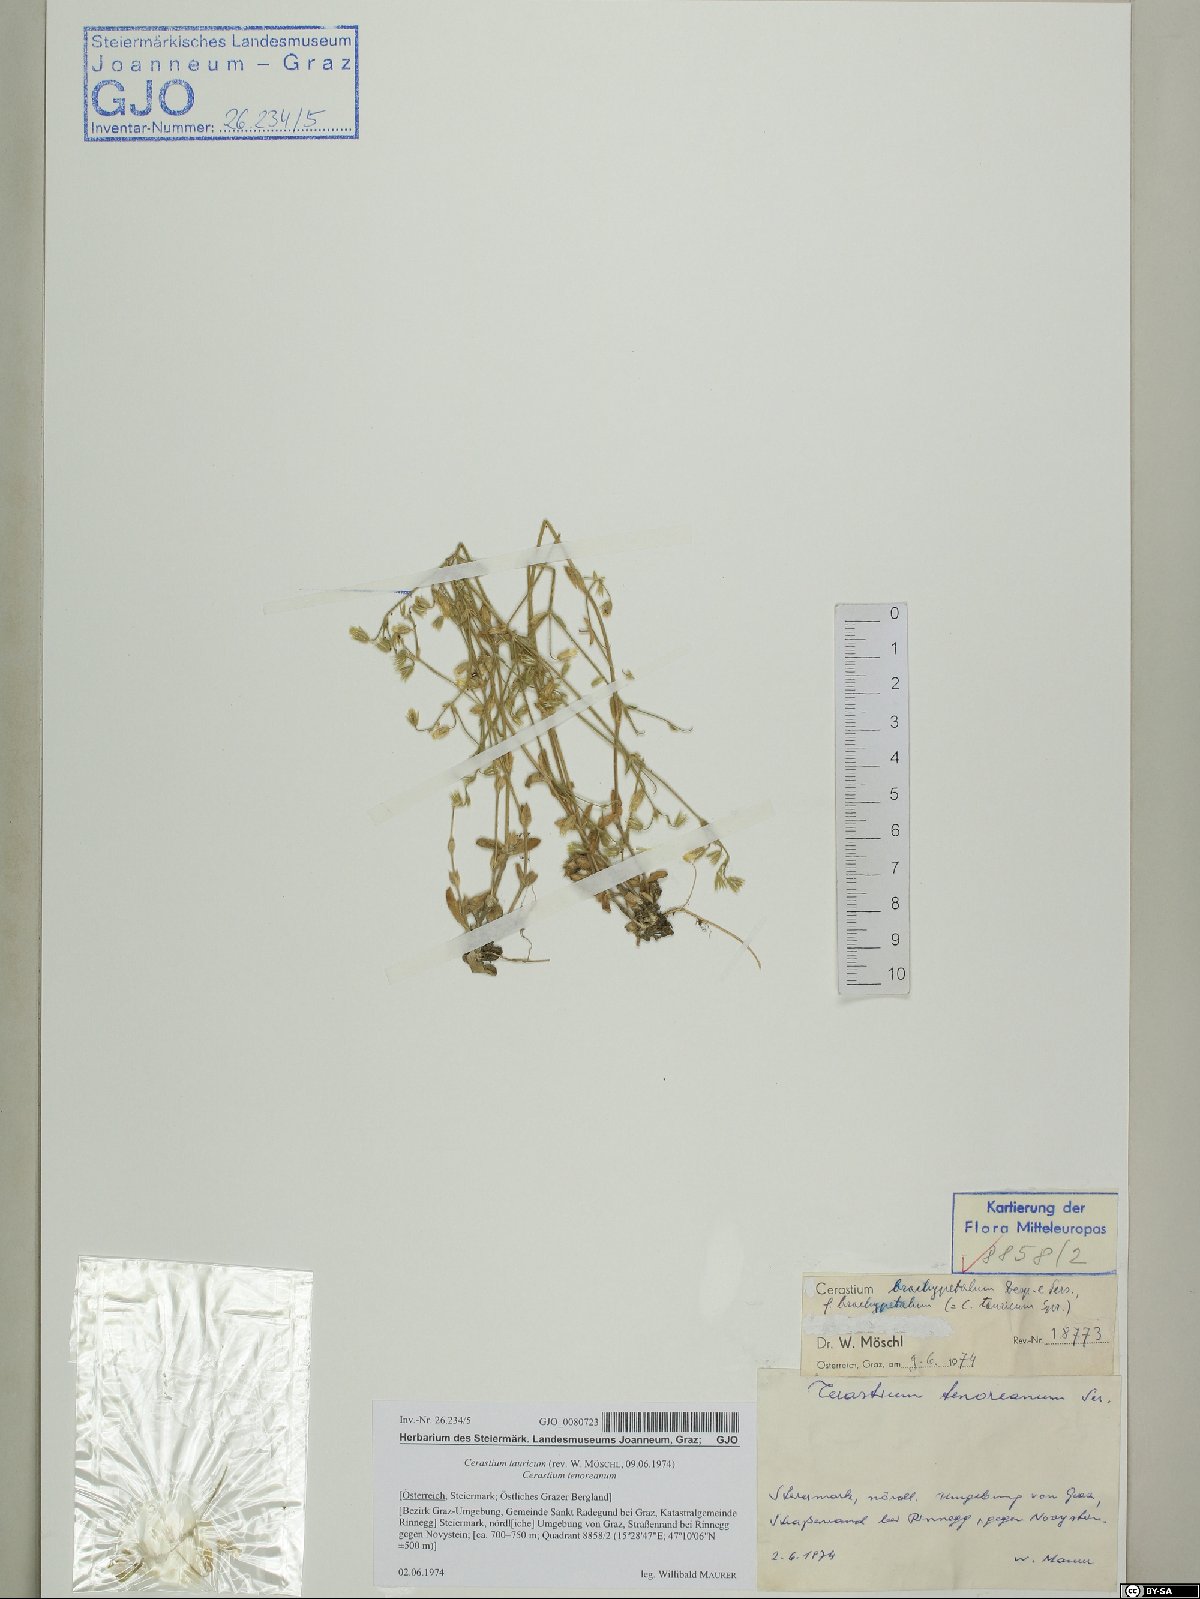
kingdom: Plantae
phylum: Tracheophyta
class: Magnoliopsida
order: Caryophyllales
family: Caryophyllaceae
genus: Cerastium
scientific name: Cerastium brachypetalum
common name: Grey mouse-ear
